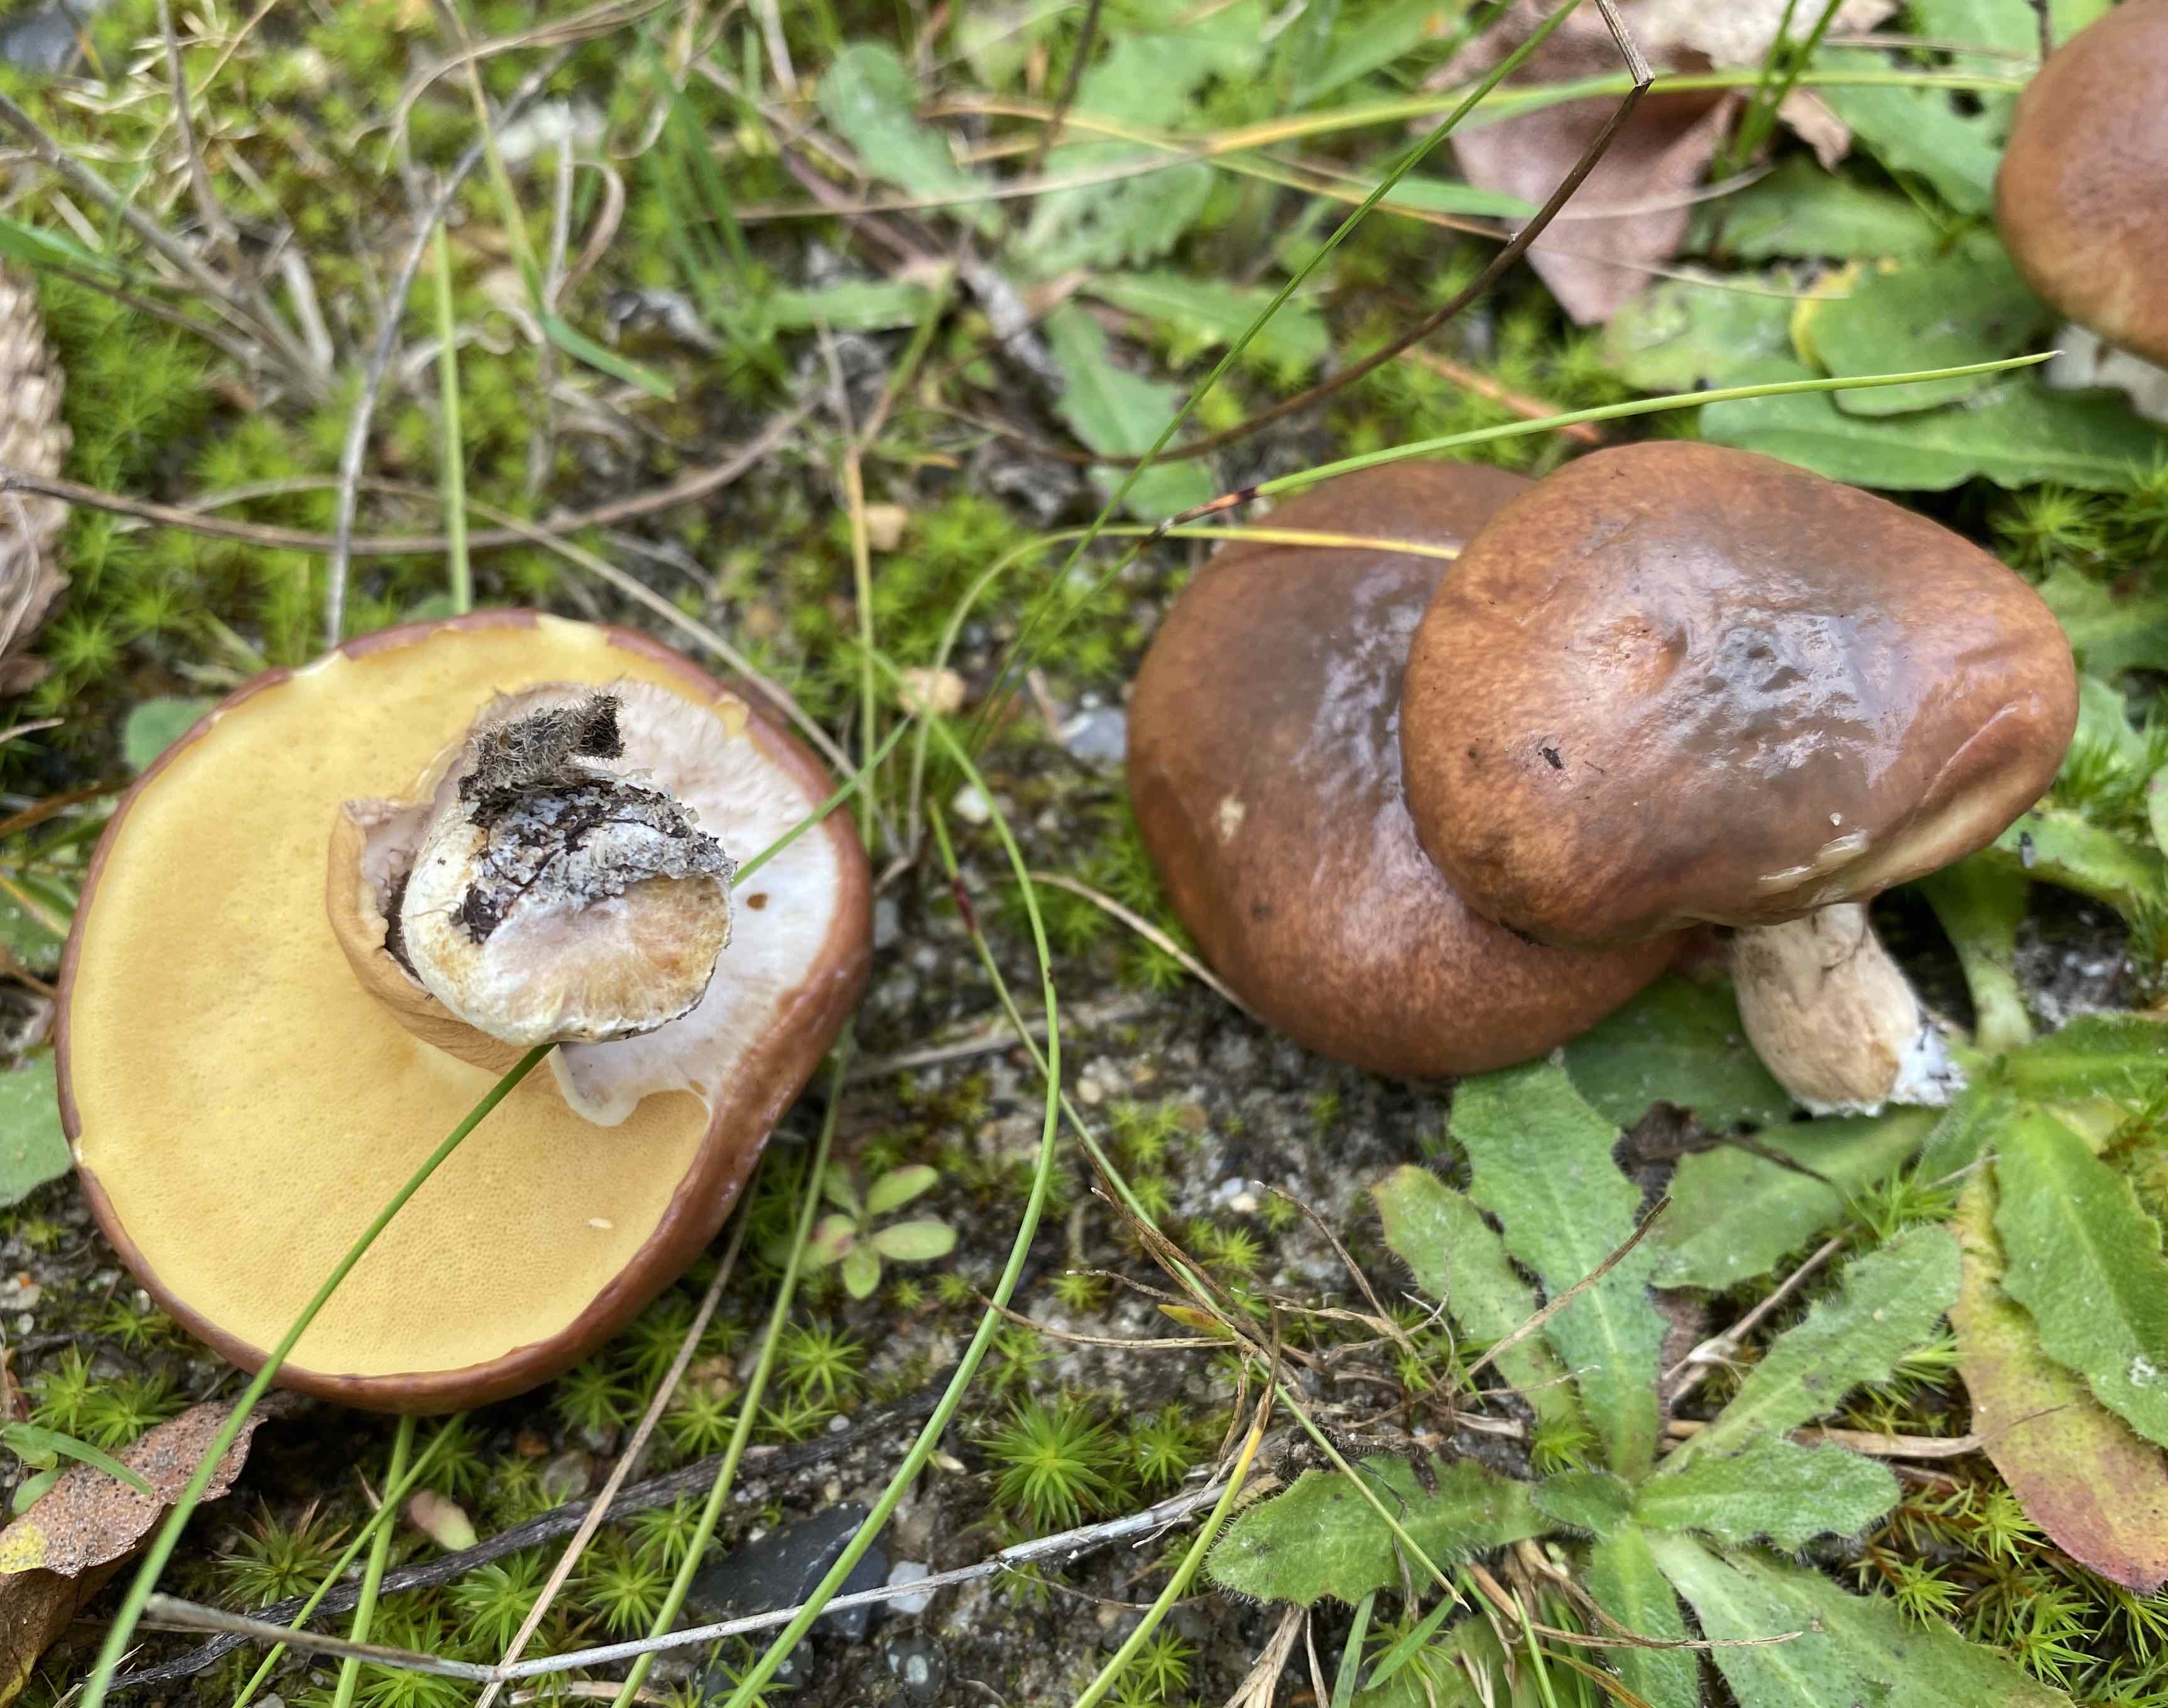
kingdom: Fungi
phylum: Basidiomycota
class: Agaricomycetes
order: Boletales
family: Suillaceae
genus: Suillus
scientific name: Suillus luteus
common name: brungul slimrørhat
